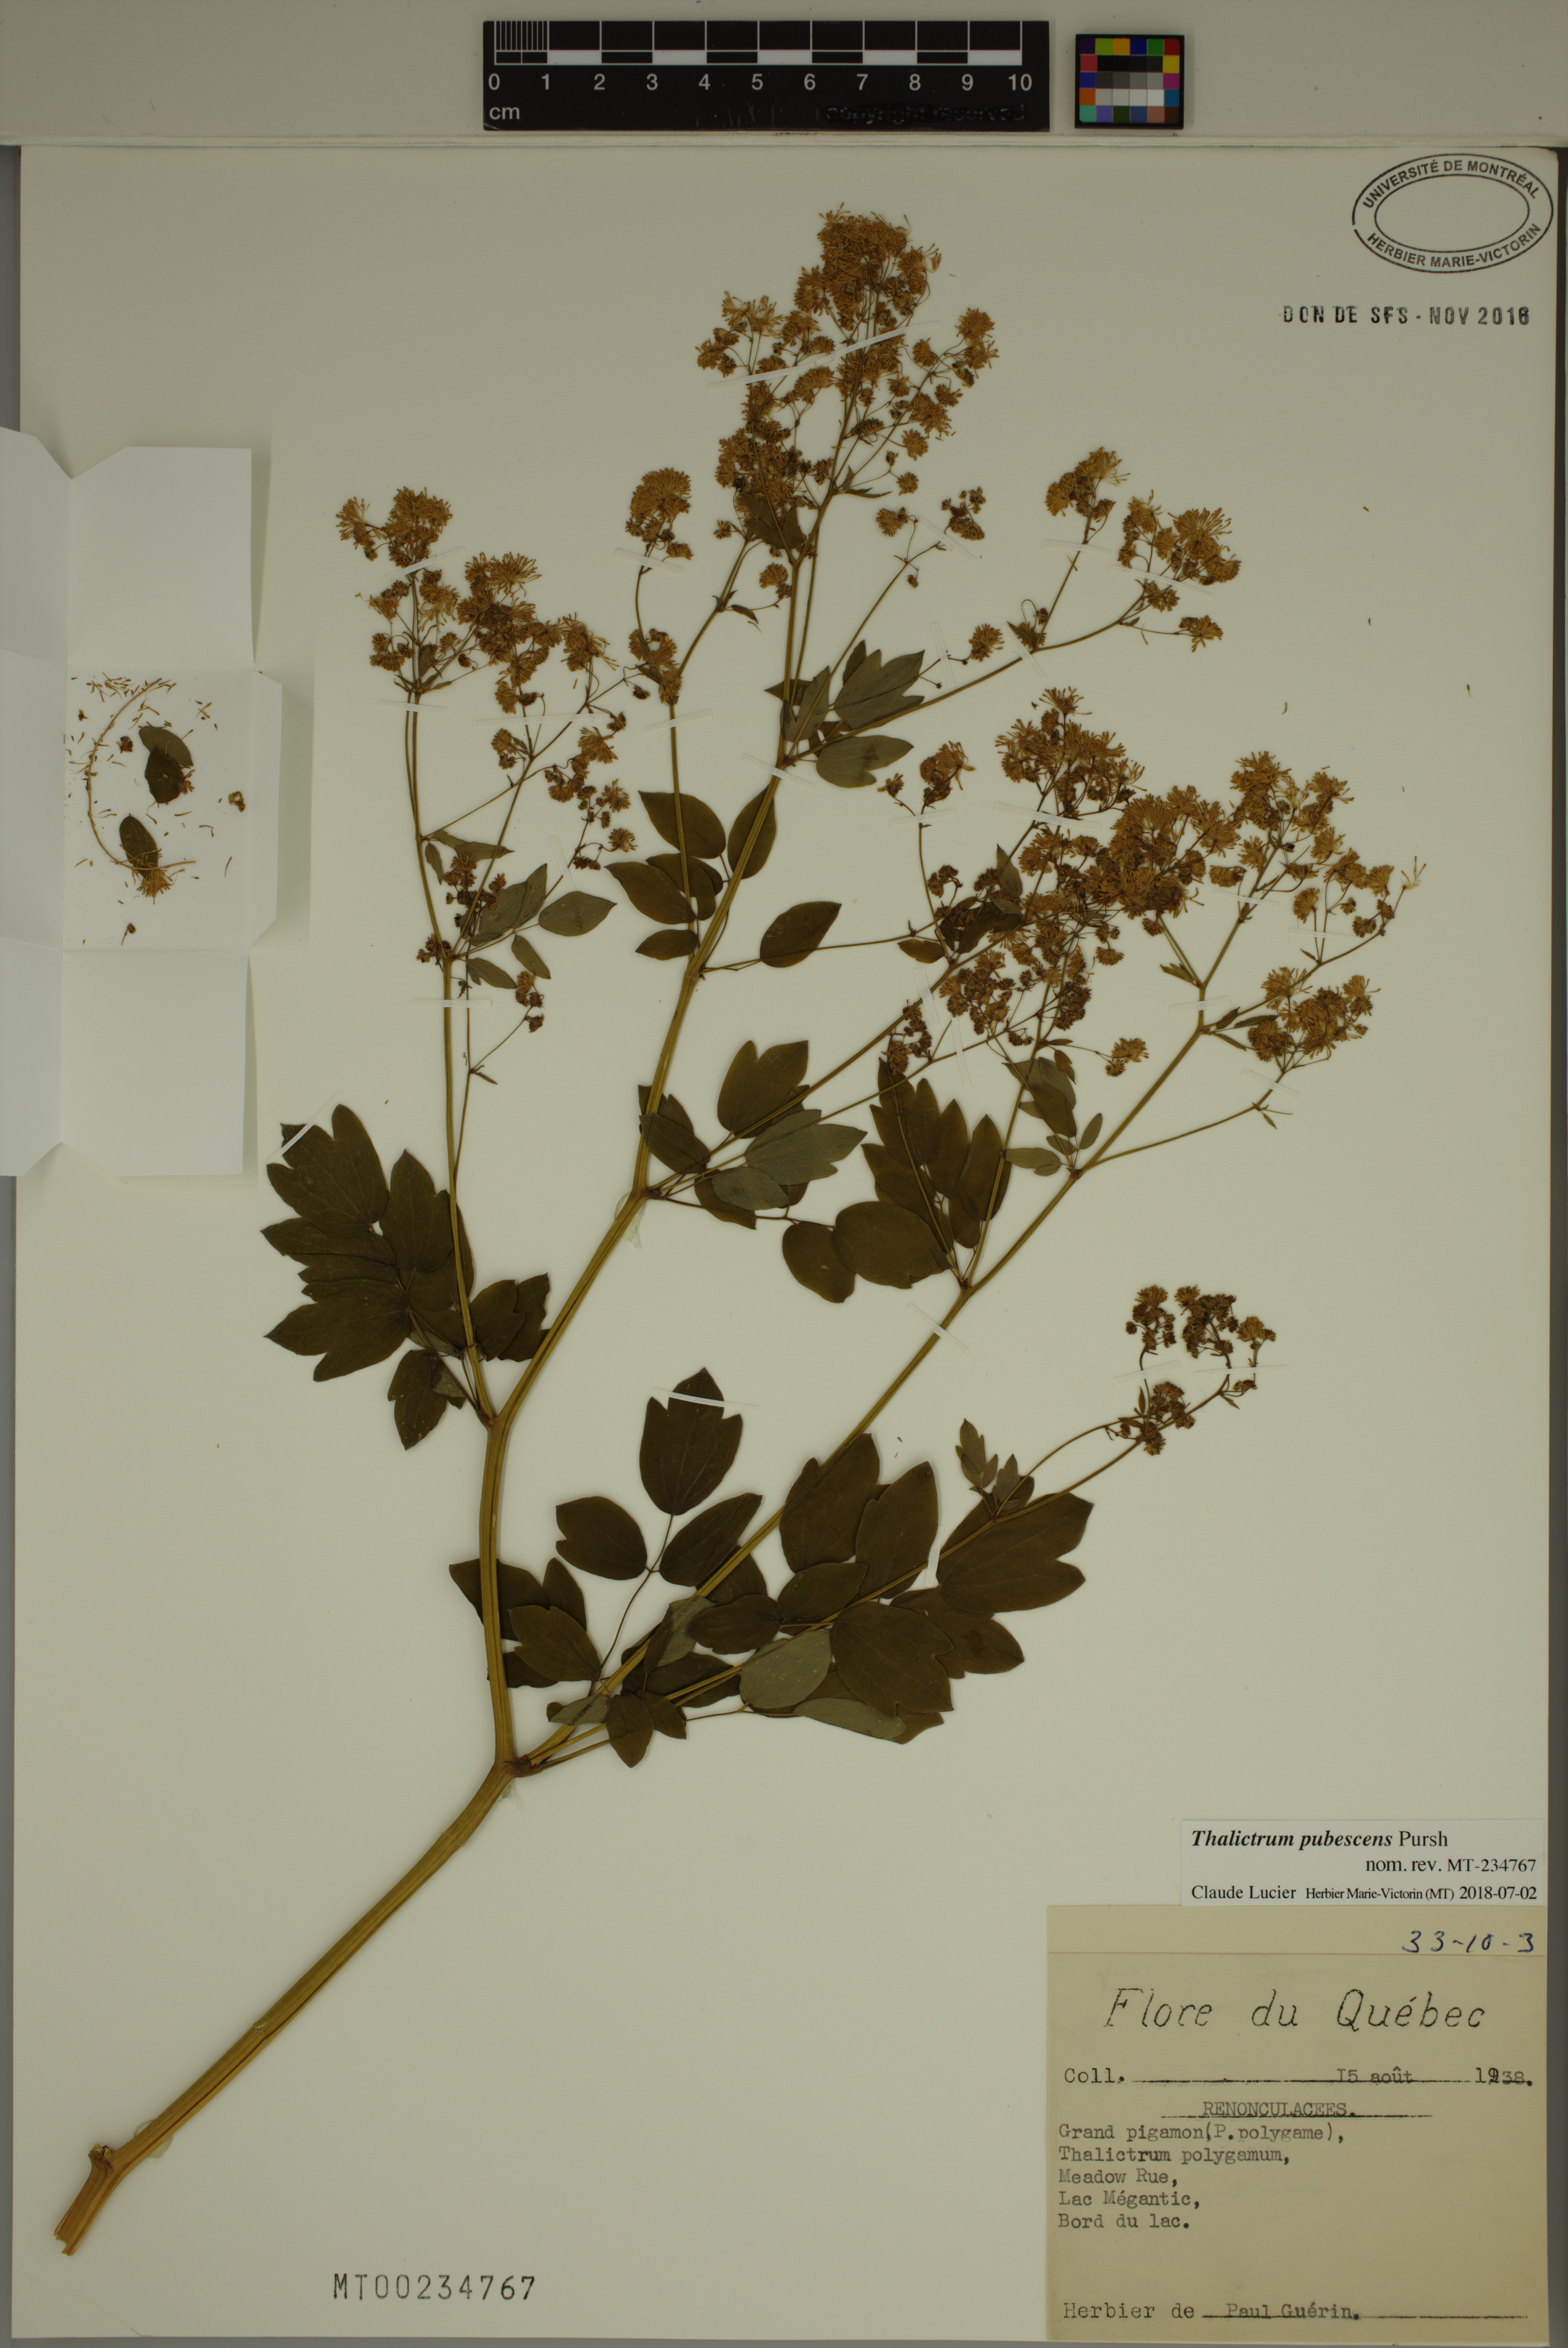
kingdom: Plantae
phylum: Tracheophyta
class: Magnoliopsida
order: Ranunculales
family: Ranunculaceae
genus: Thalictrum
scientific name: Thalictrum pubescens
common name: King-of-the-meadow
